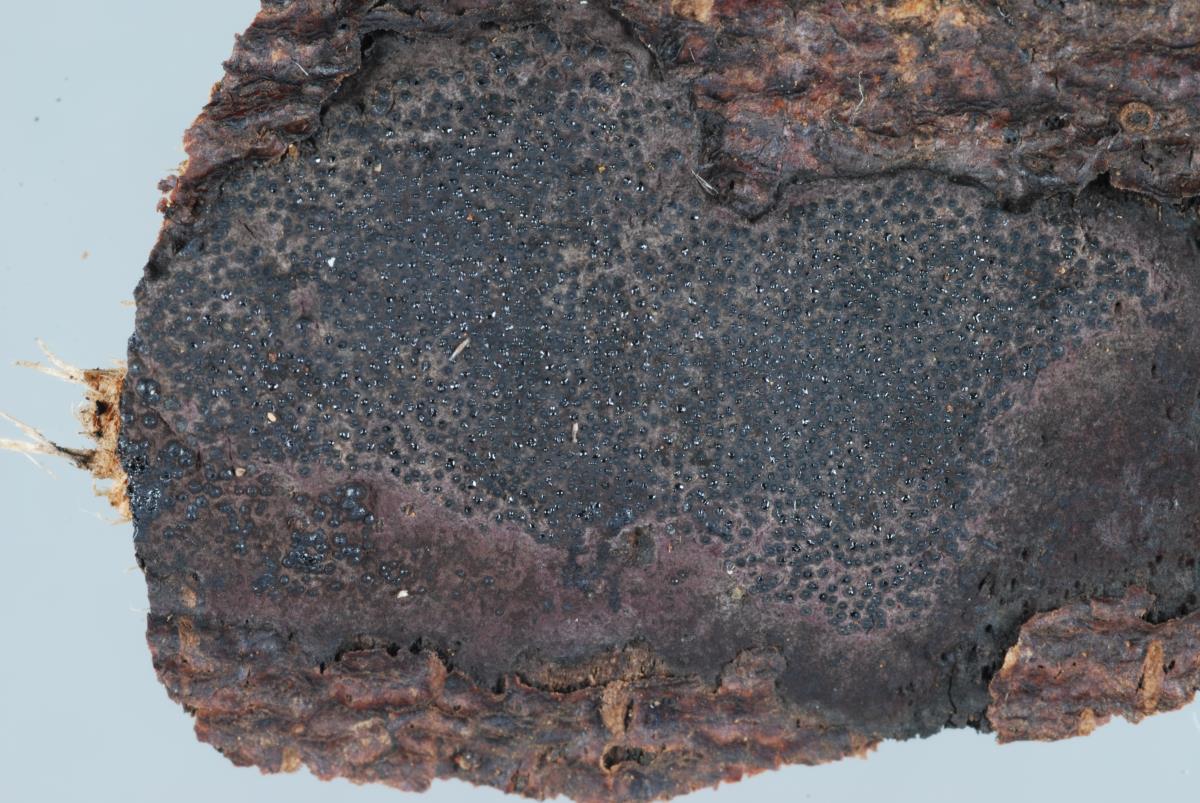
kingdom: Fungi
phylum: Ascomycota
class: Sordariomycetes
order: Xylariales
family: Hypoxylaceae
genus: Annulohypoxylon
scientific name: Annulohypoxylon stygium
